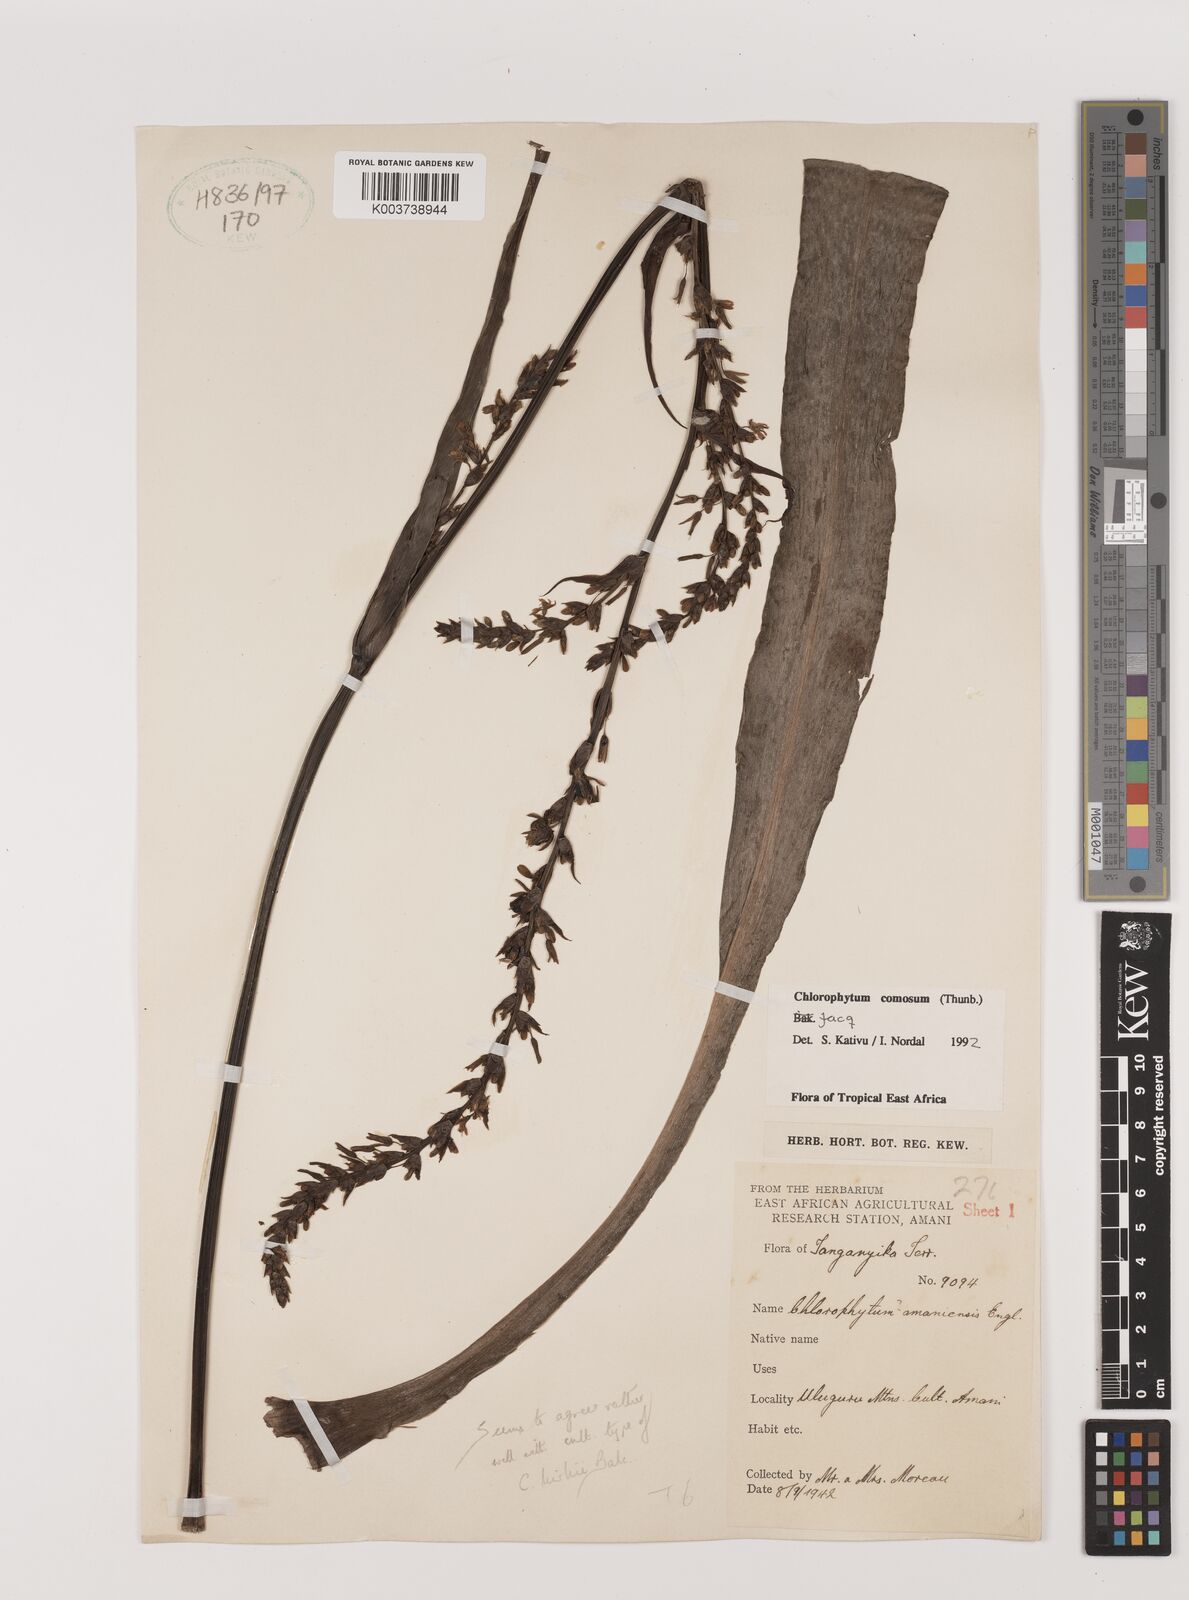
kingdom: Plantae
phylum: Tracheophyta
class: Liliopsida
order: Asparagales
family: Asparagaceae
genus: Chlorophytum
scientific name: Chlorophytum comosum
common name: Spider plant
